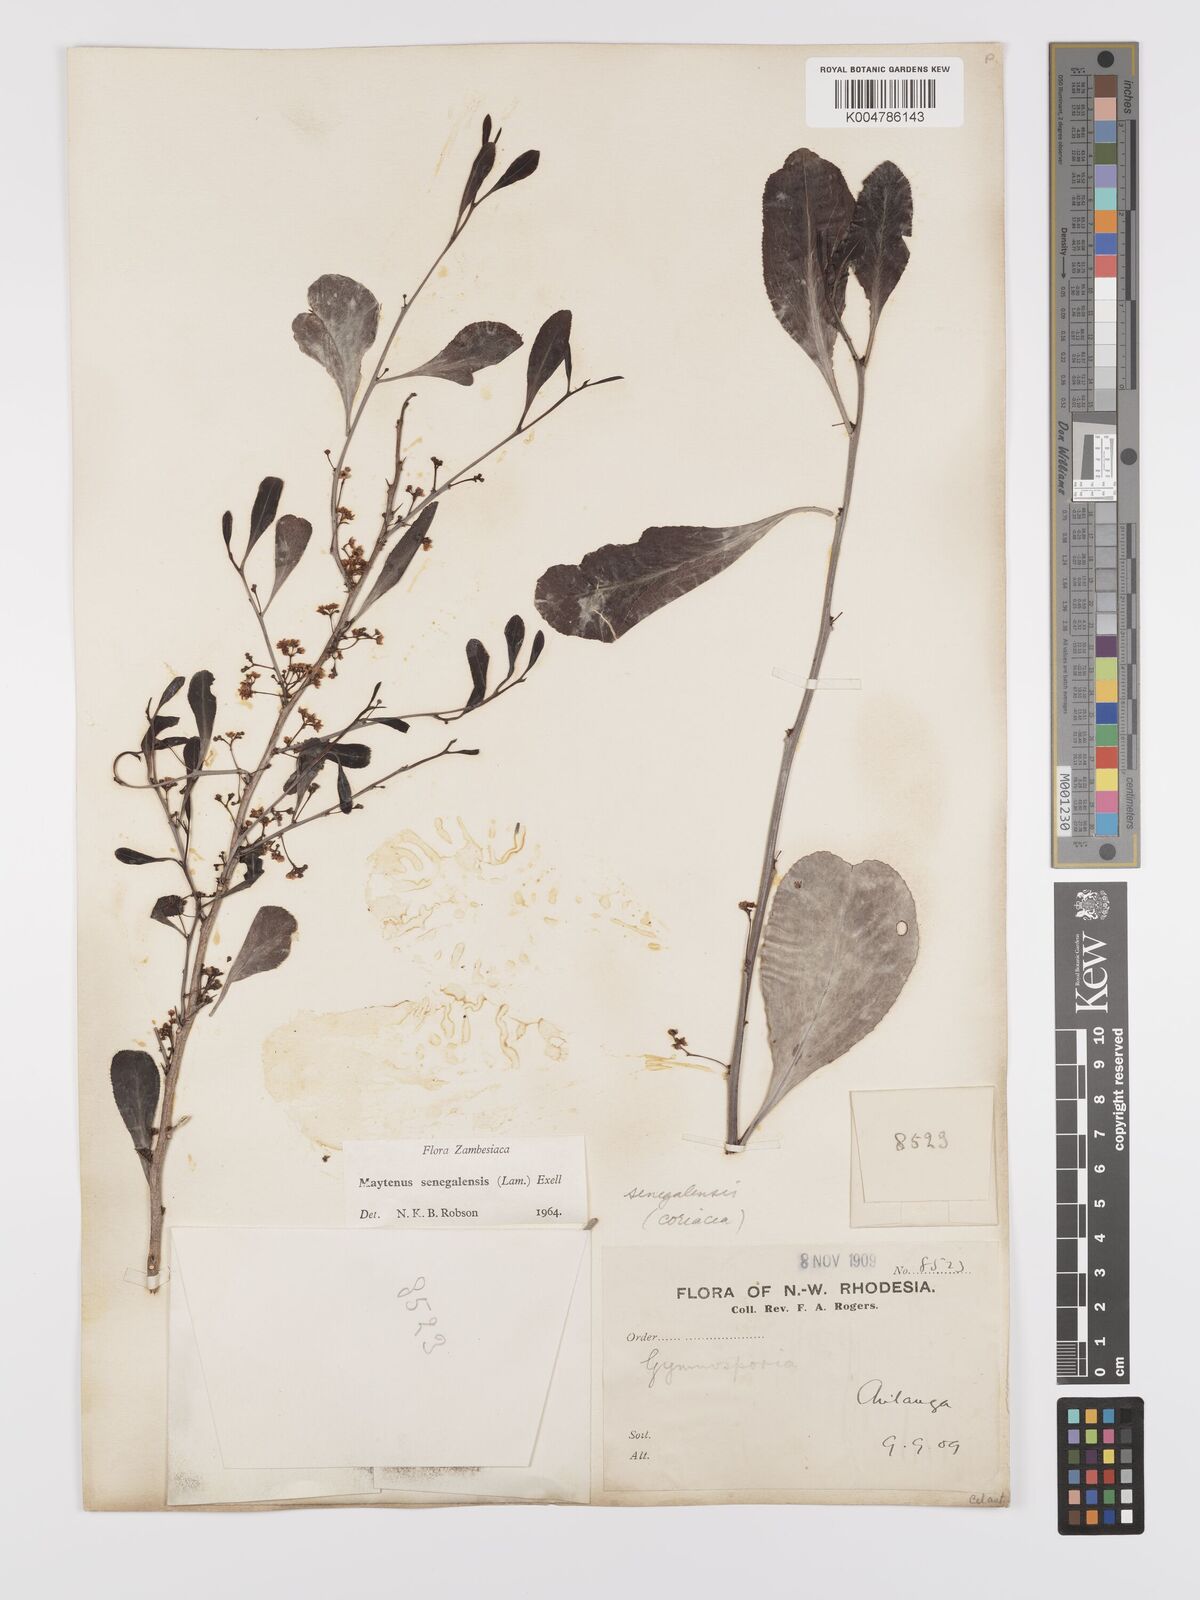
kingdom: Plantae
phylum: Tracheophyta
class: Magnoliopsida
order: Celastrales
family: Celastraceae
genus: Gymnosporia
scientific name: Gymnosporia senegalensis
